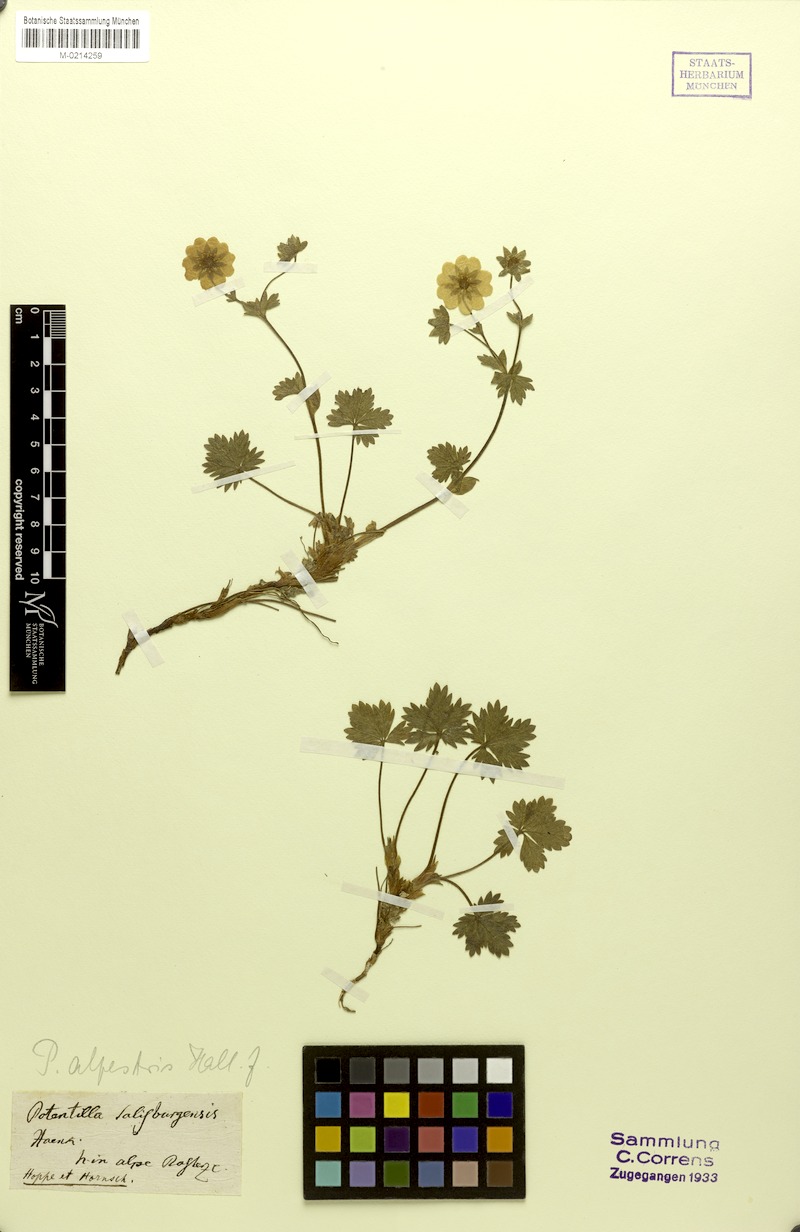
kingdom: Plantae
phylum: Tracheophyta
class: Magnoliopsida
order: Rosales
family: Rosaceae
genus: Potentilla
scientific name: Potentilla crantzii
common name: Alpine cinquefoil
